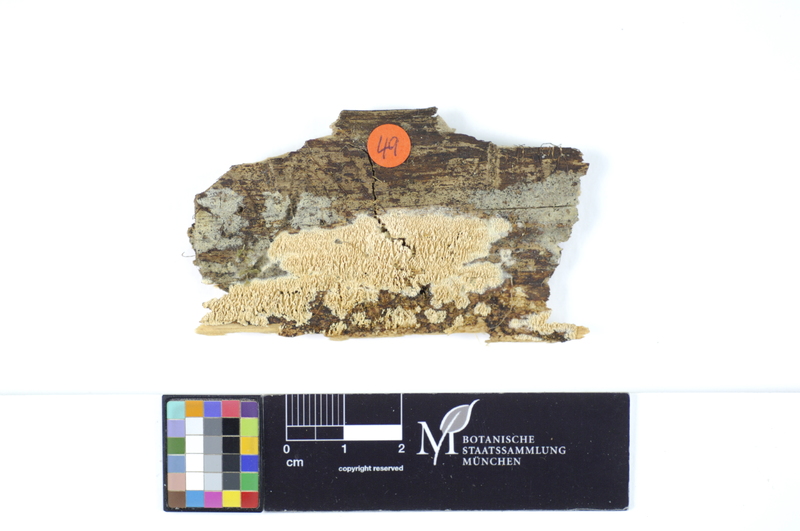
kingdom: Fungi
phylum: Basidiomycota
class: Agaricomycetes
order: Hymenochaetales
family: Schizoporaceae
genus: Schizopora
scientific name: Schizopora
